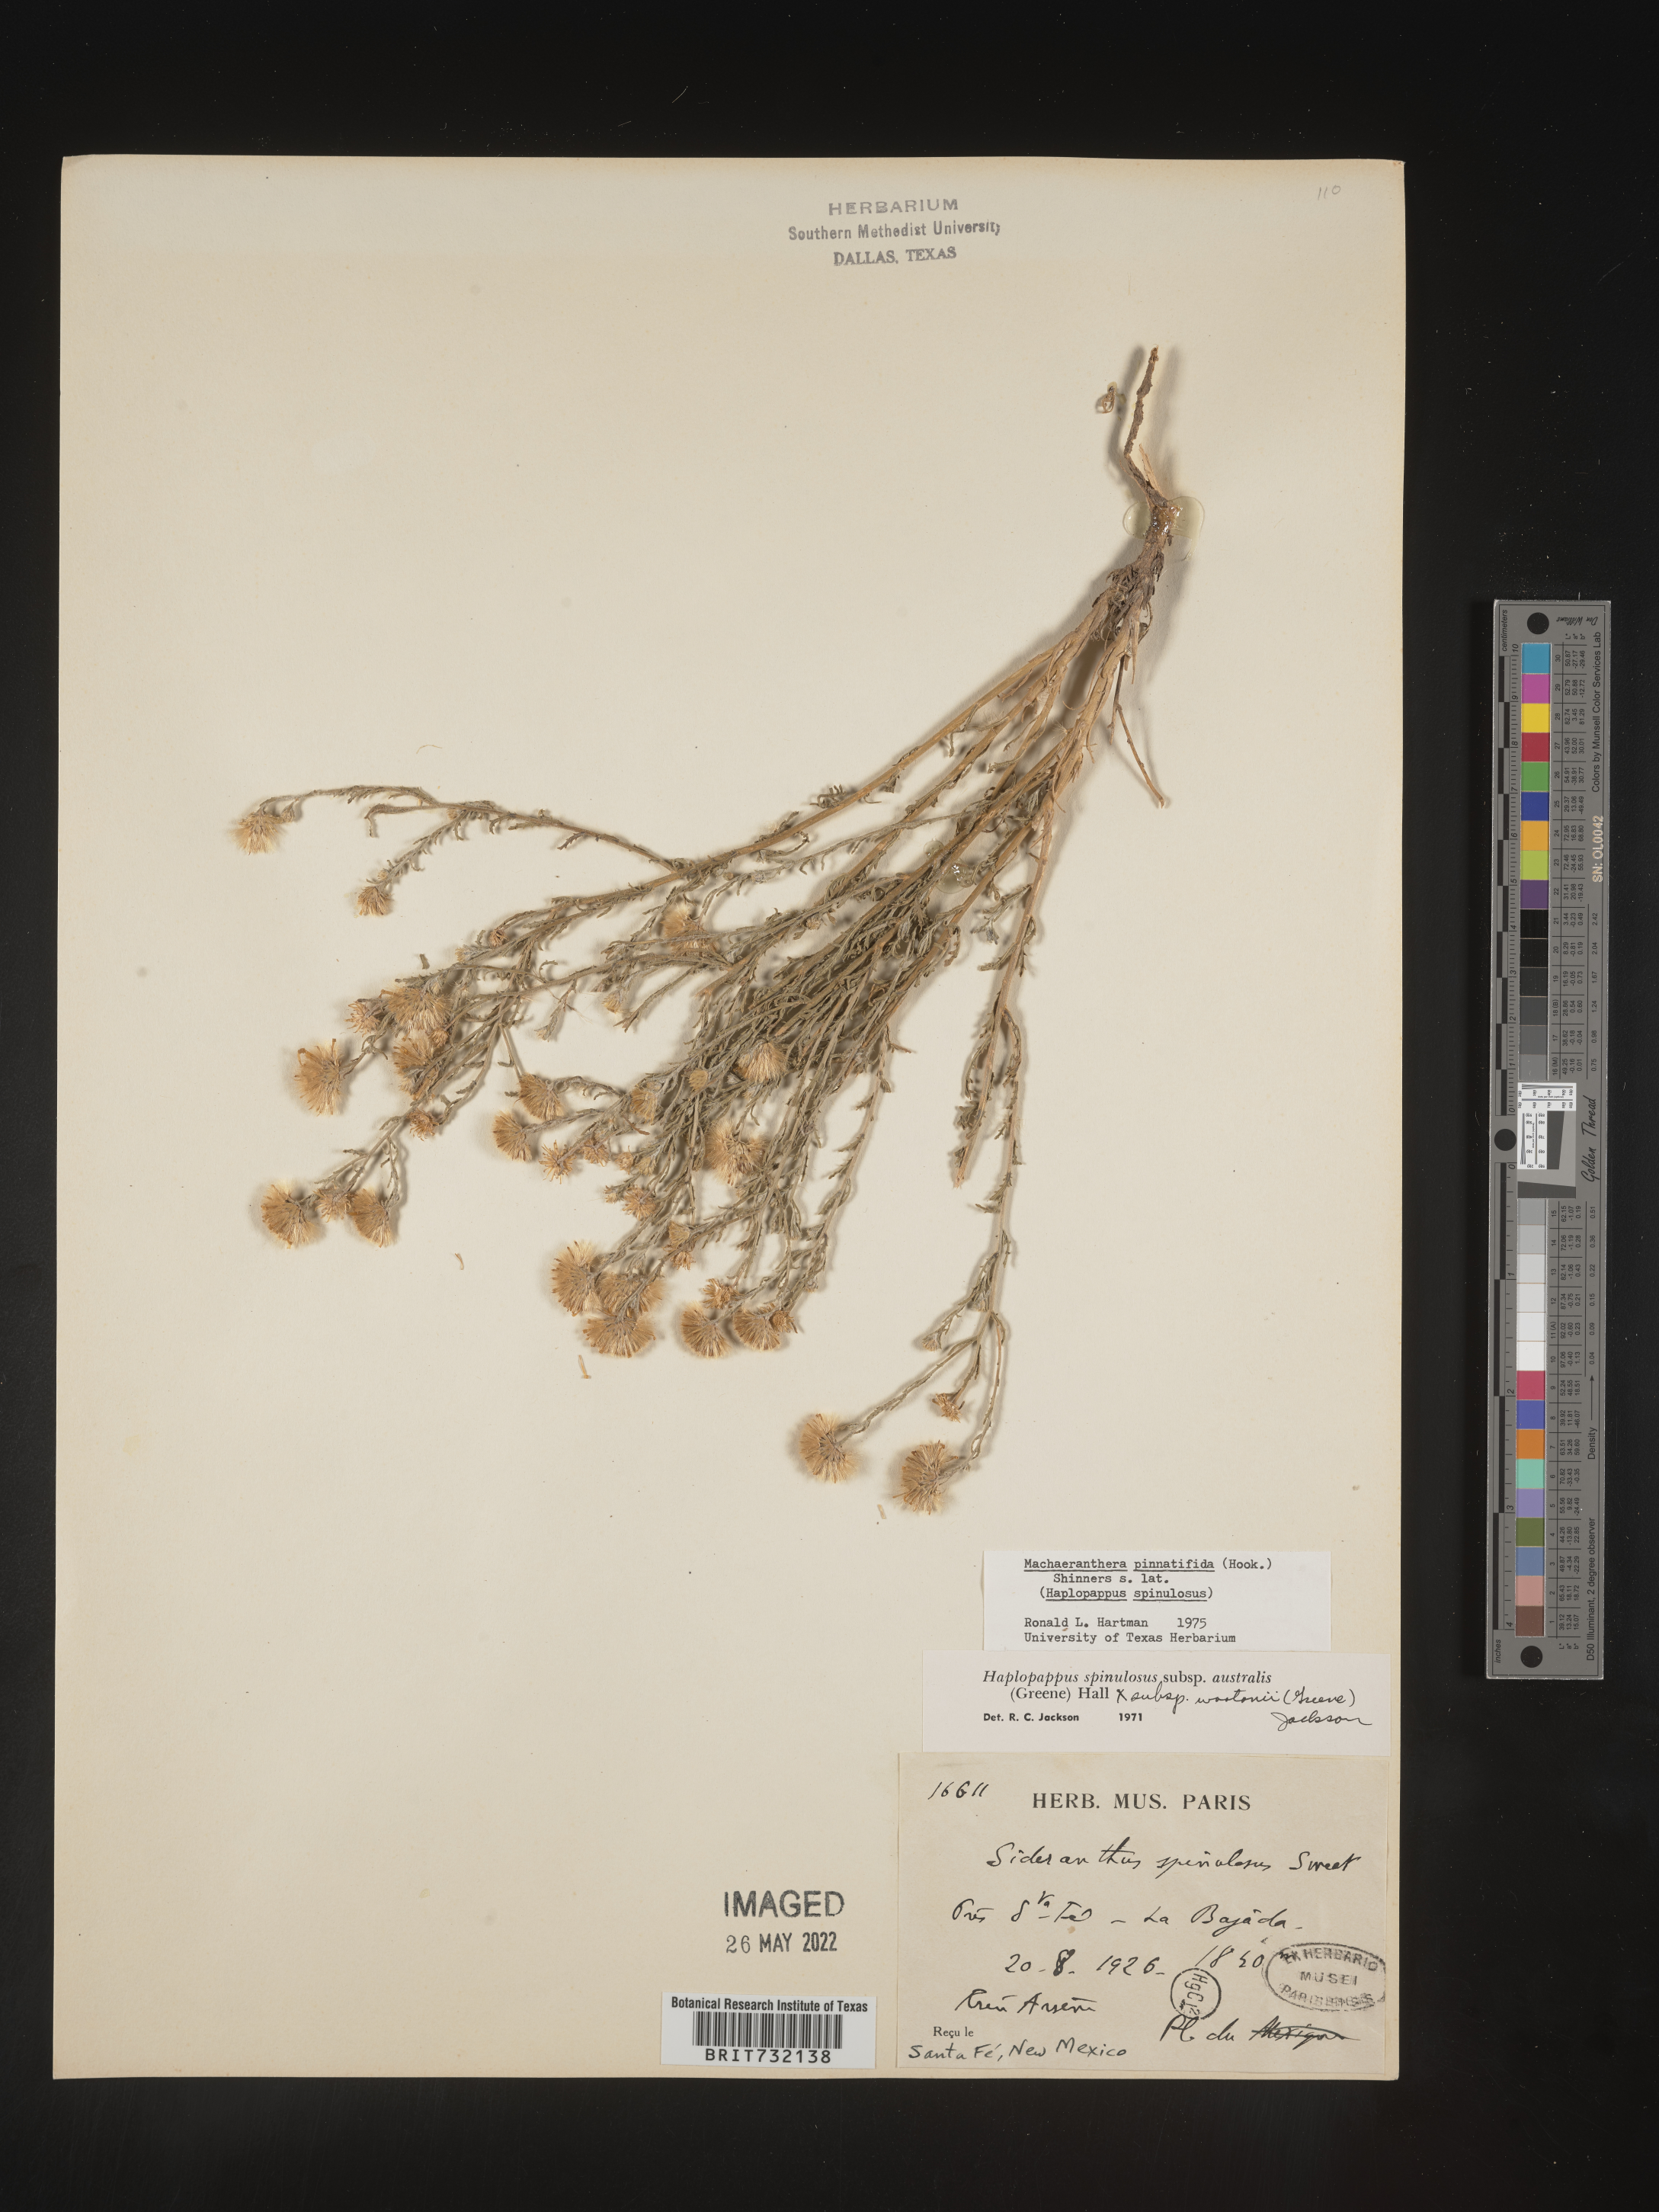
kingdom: Plantae
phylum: Tracheophyta
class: Magnoliopsida
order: Asterales
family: Asteraceae
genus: Xanthisma
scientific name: Xanthisma spinulosum
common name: Spiny goldenweed
